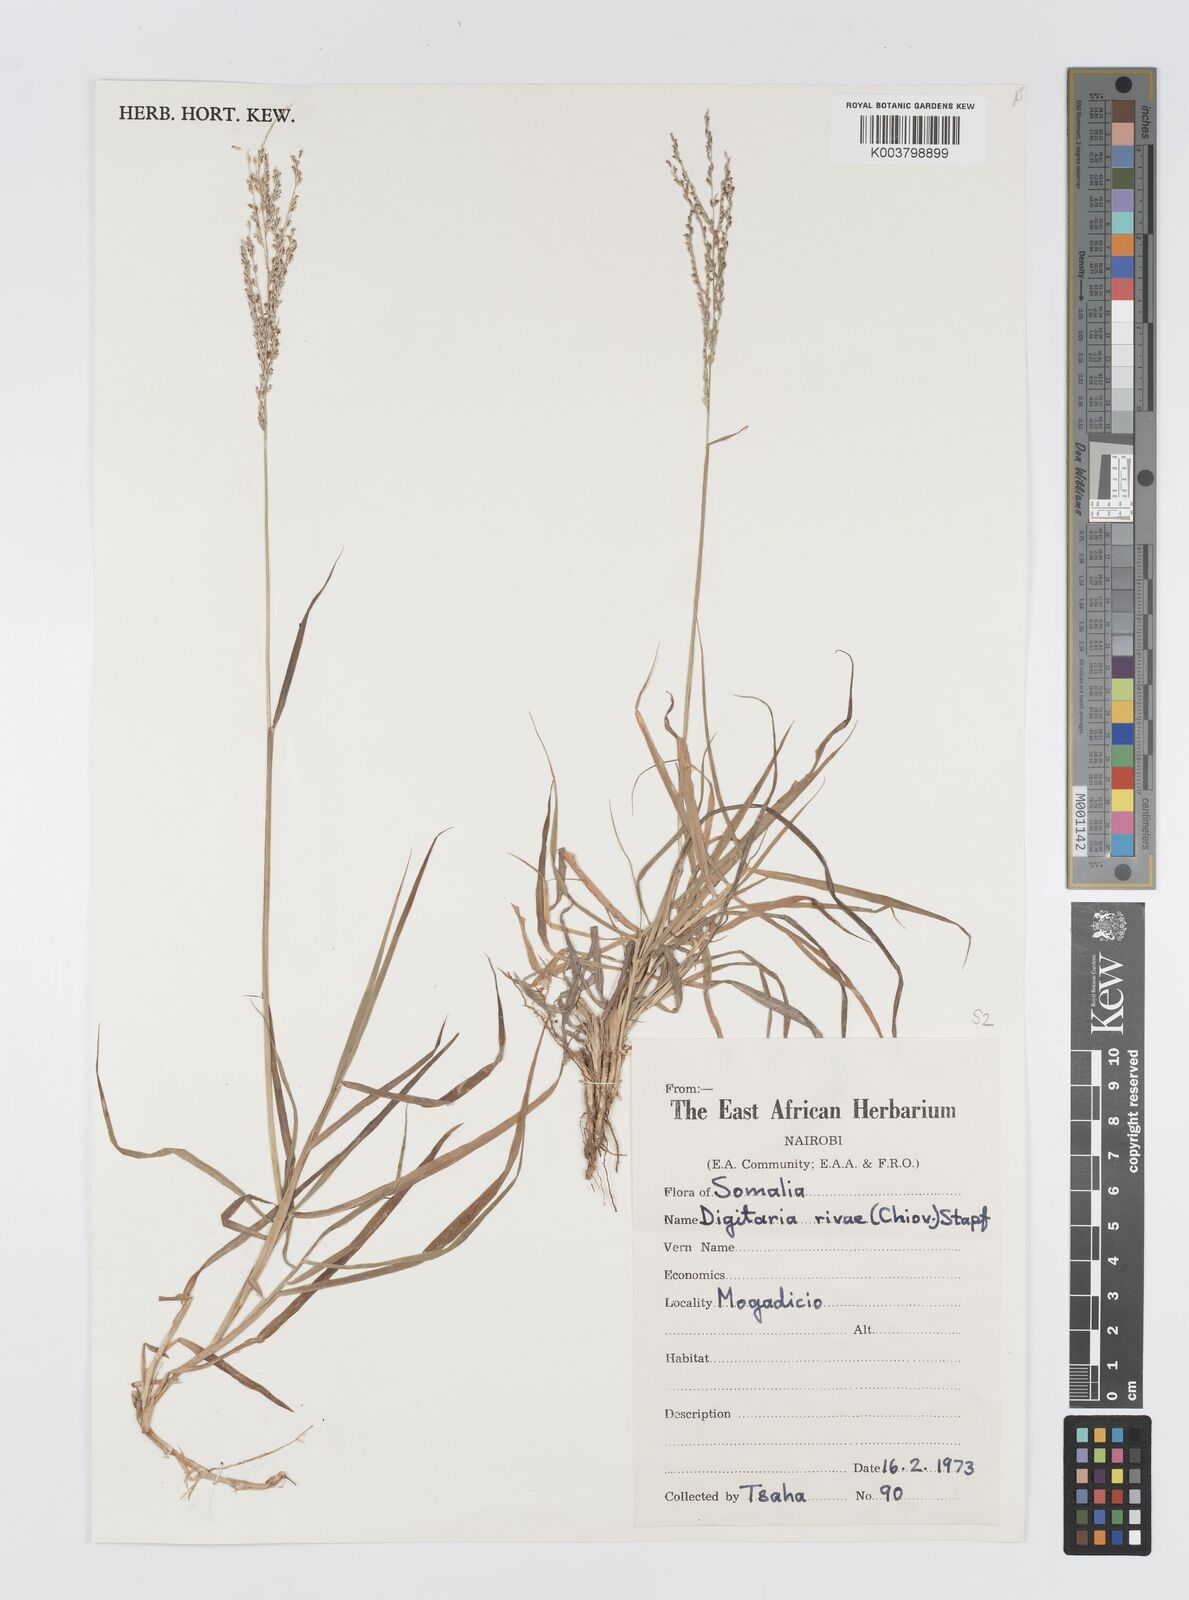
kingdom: Plantae
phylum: Tracheophyta
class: Liliopsida
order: Poales
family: Poaceae
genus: Digitaria
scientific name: Digitaria rivae
